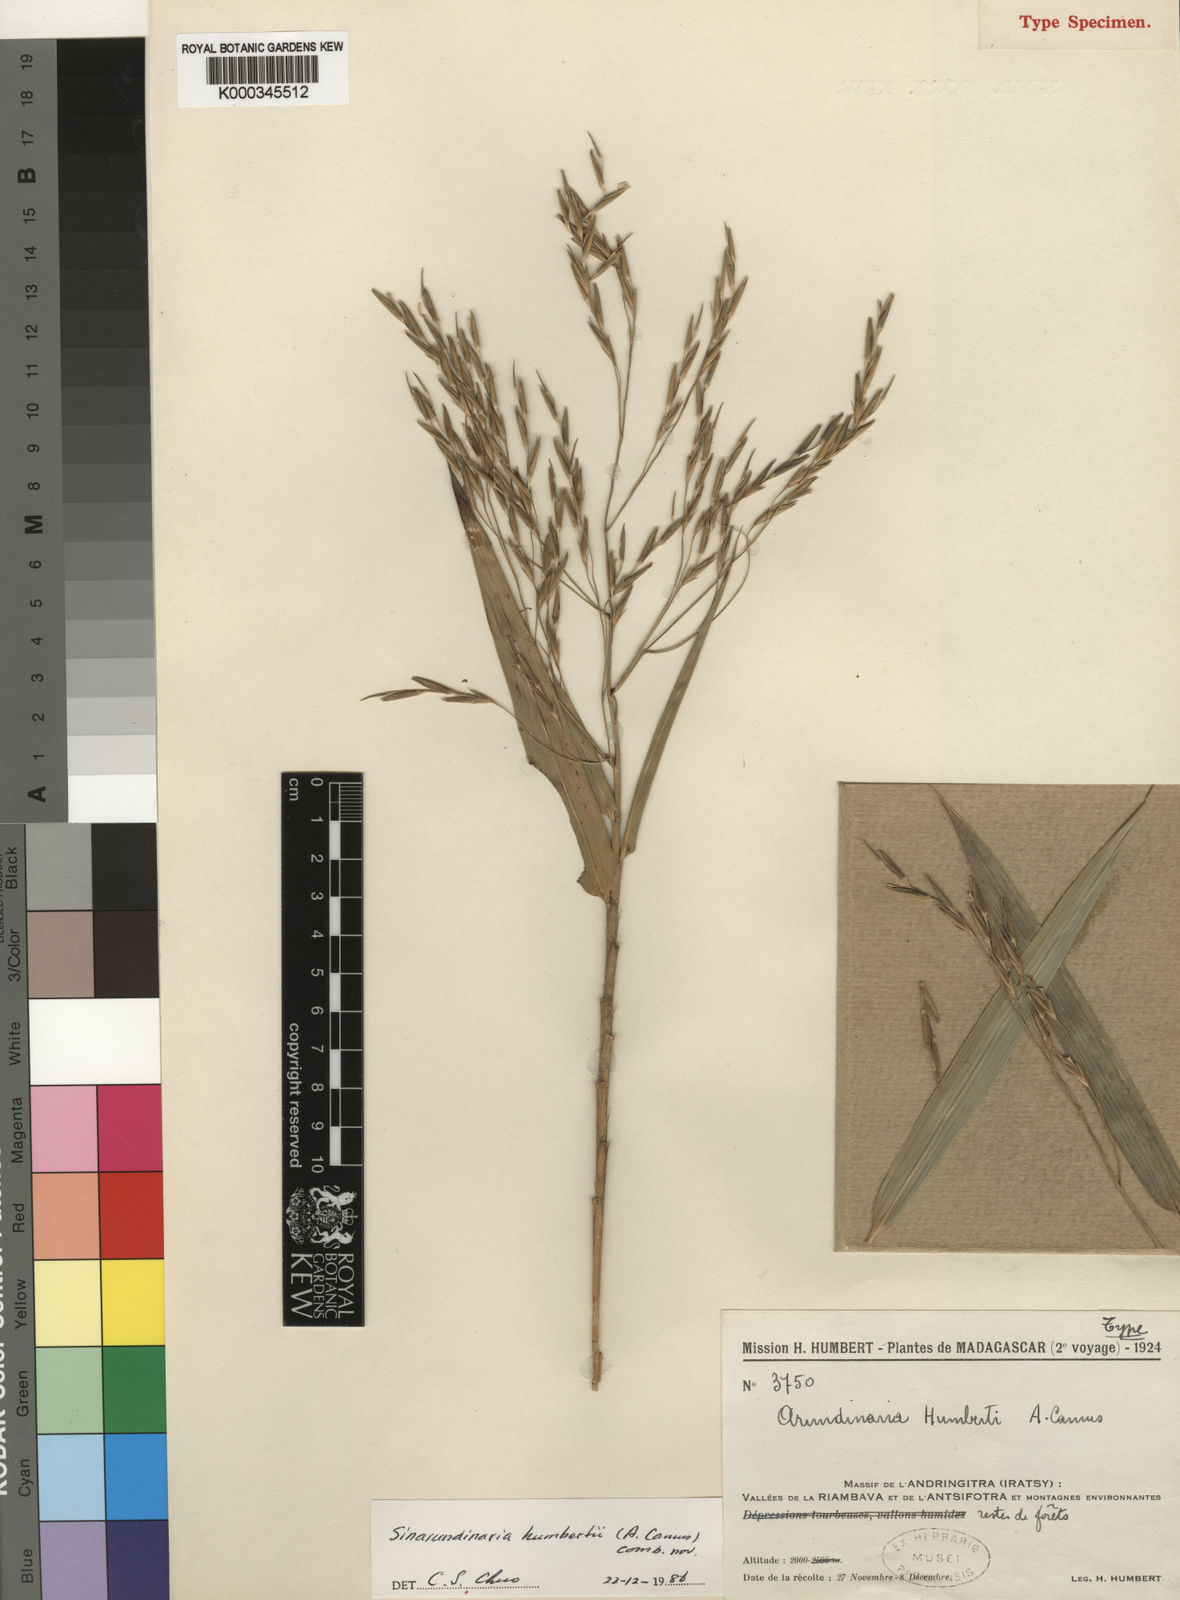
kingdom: Plantae
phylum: Tracheophyta
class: Liliopsida
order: Poales
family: Poaceae
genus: Oldeania
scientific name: Oldeania humbertii
